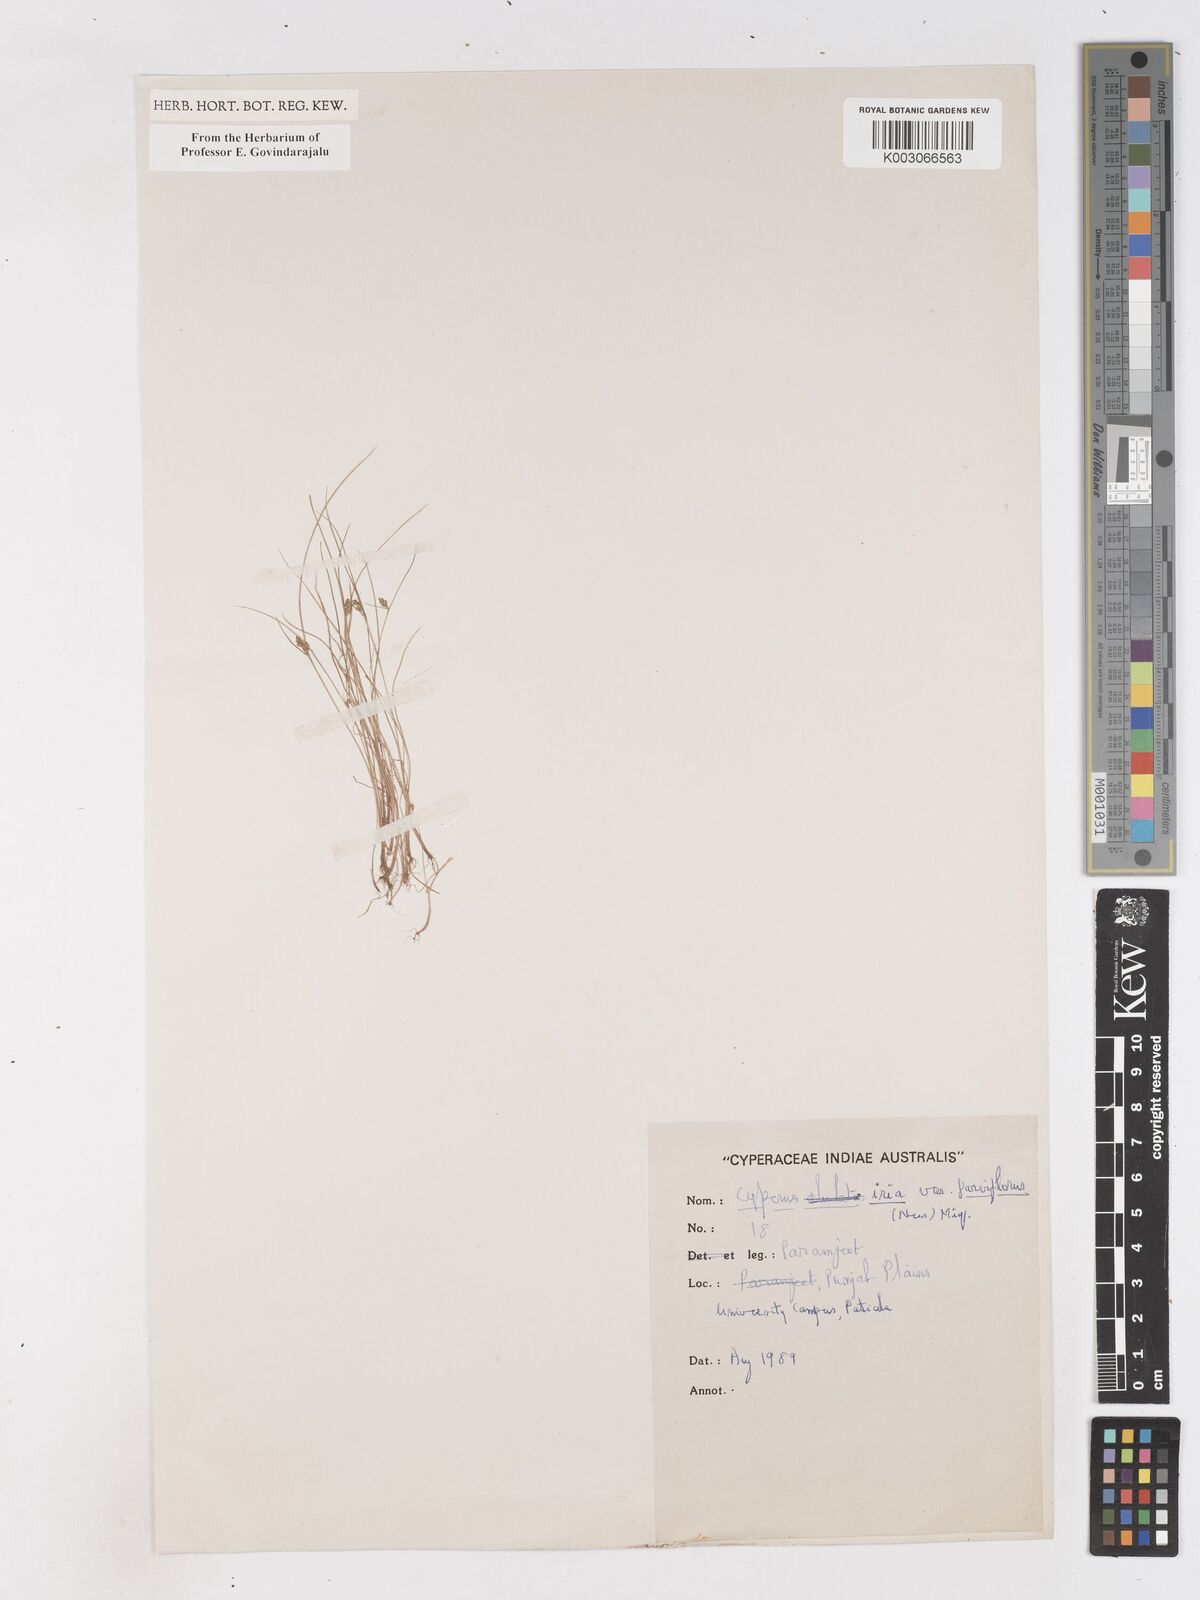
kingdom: Plantae
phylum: Tracheophyta
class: Liliopsida
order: Poales
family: Cyperaceae
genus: Cyperus
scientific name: Cyperus iria
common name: Ricefield flatsedge
